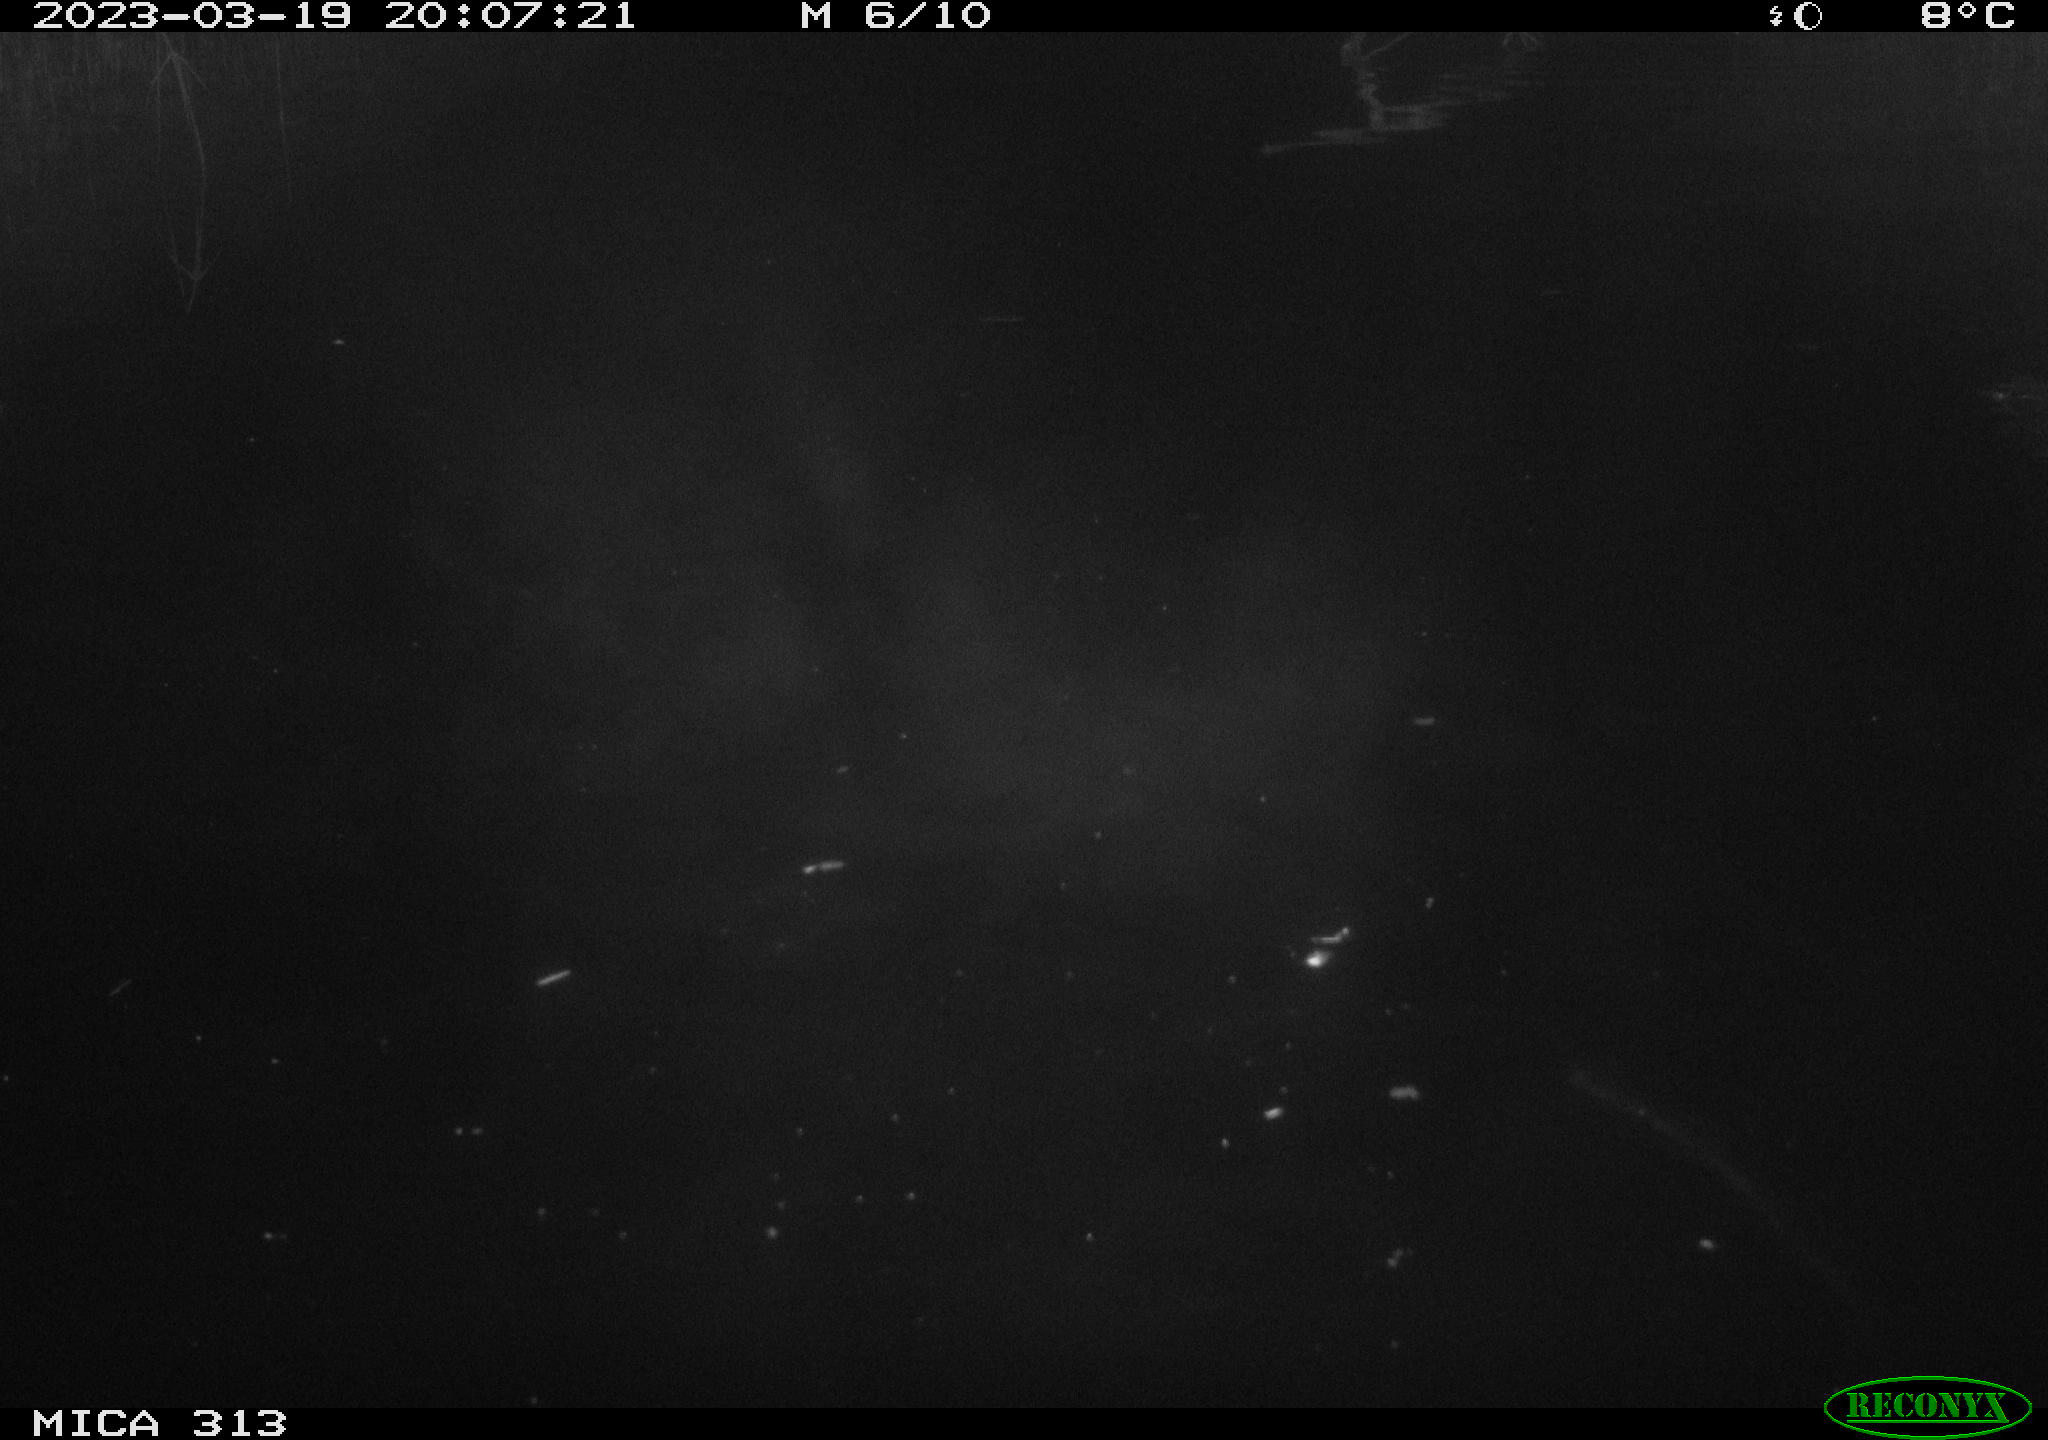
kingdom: Animalia
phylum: Chordata
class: Aves
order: Gruiformes
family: Rallidae
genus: Fulica
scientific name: Fulica atra
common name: Eurasian coot
